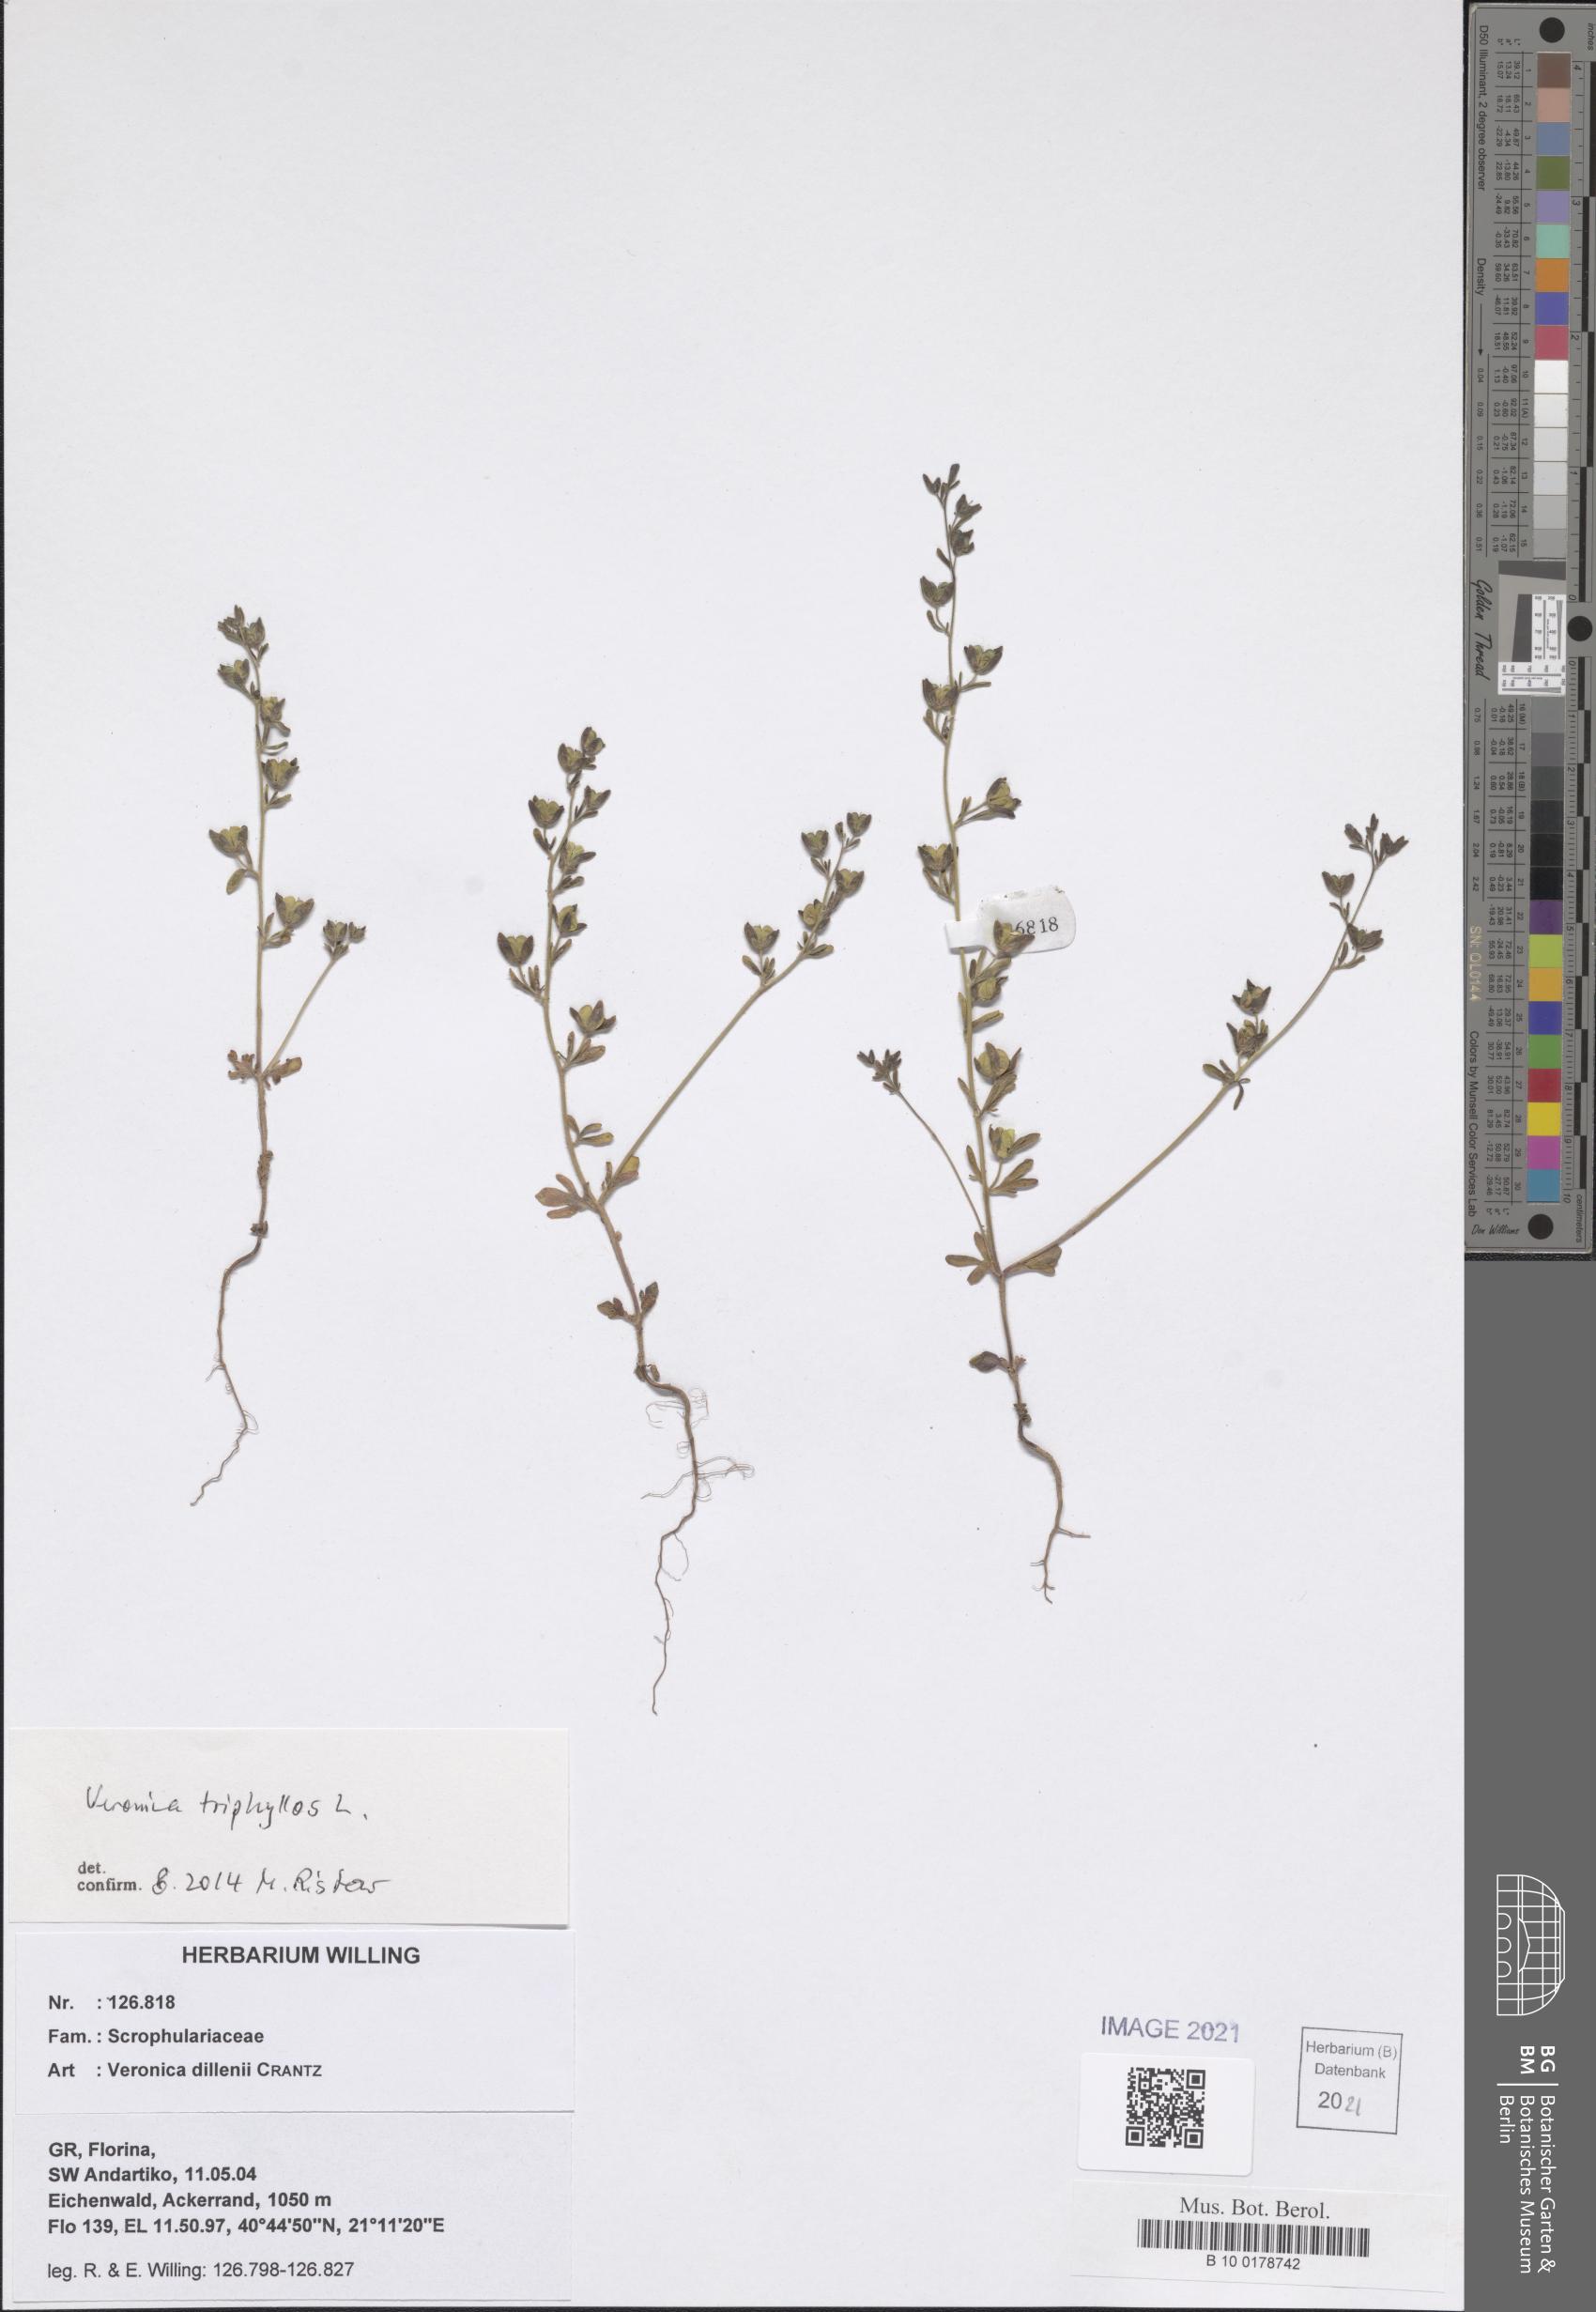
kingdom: Plantae
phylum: Tracheophyta
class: Magnoliopsida
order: Lamiales
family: Plantaginaceae
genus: Veronica
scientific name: Veronica triphyllos
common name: Fingered speedwell
